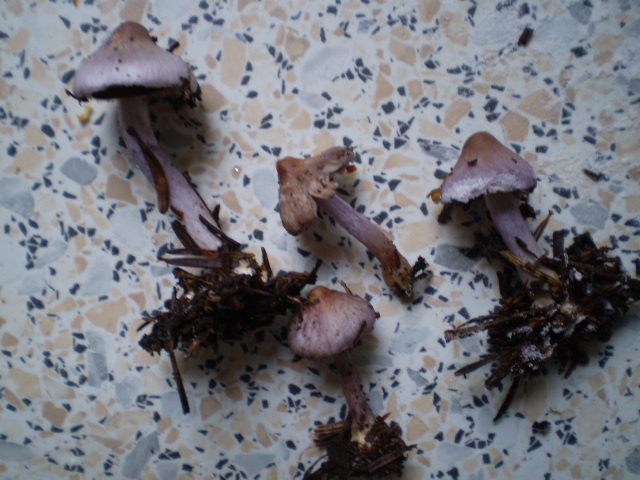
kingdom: Fungi
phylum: Basidiomycota
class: Agaricomycetes
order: Agaricales
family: Inocybaceae
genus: Inocybe
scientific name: Inocybe geophylla
